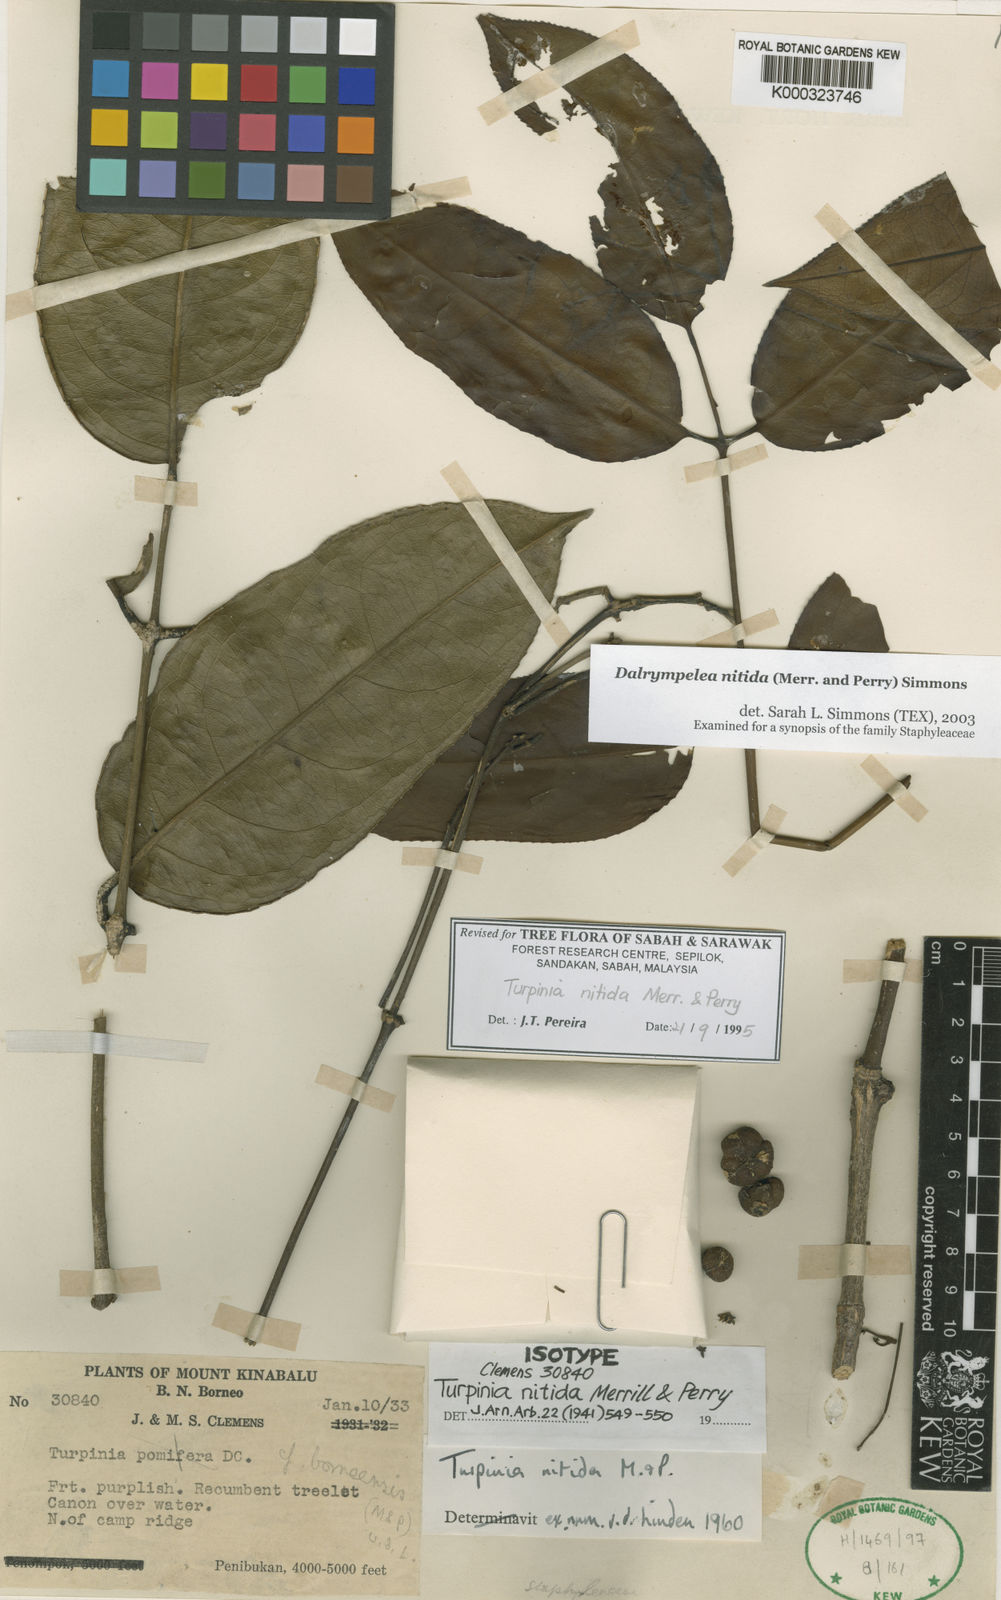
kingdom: Plantae
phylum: Tracheophyta
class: Magnoliopsida
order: Crossosomatales
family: Staphyleaceae
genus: Dalrympelea
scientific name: Dalrympelea nitida
